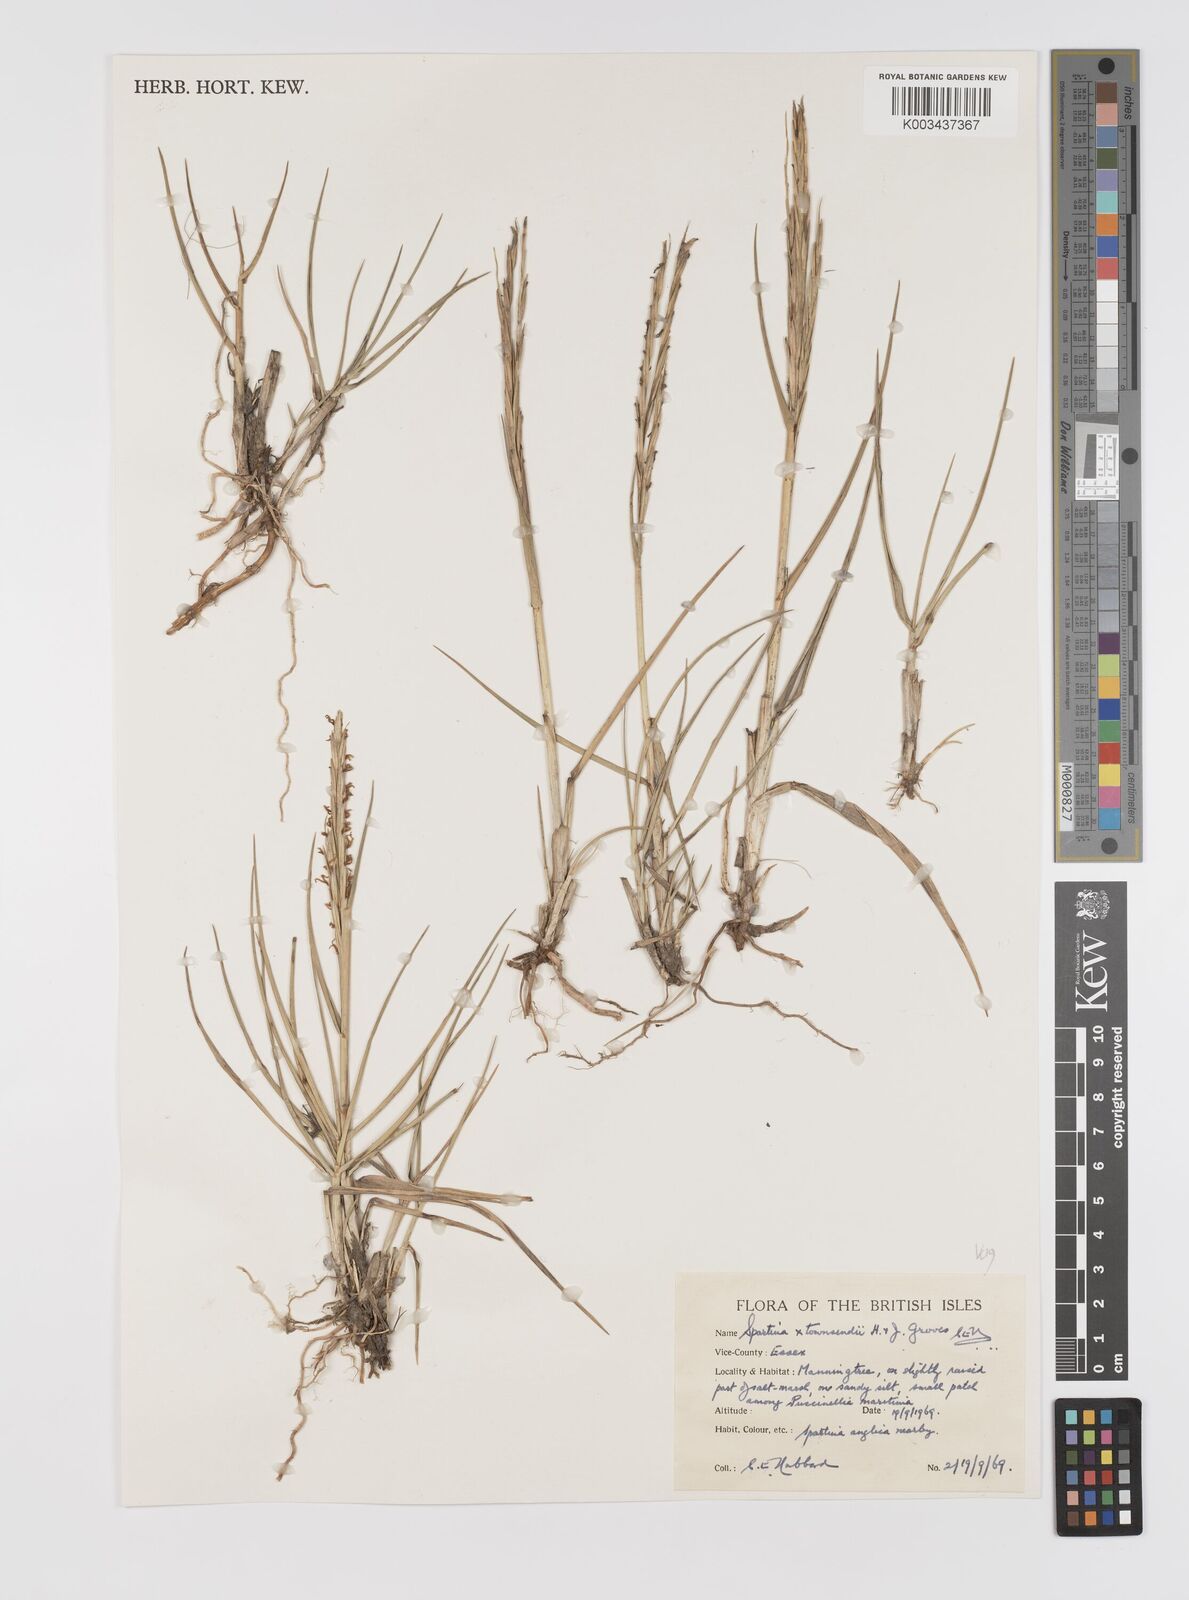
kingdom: Plantae
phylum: Tracheophyta
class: Liliopsida
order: Poales
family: Poaceae
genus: Sporobolus
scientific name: Sporobolus townsendii
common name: Townsend's cordgrass
